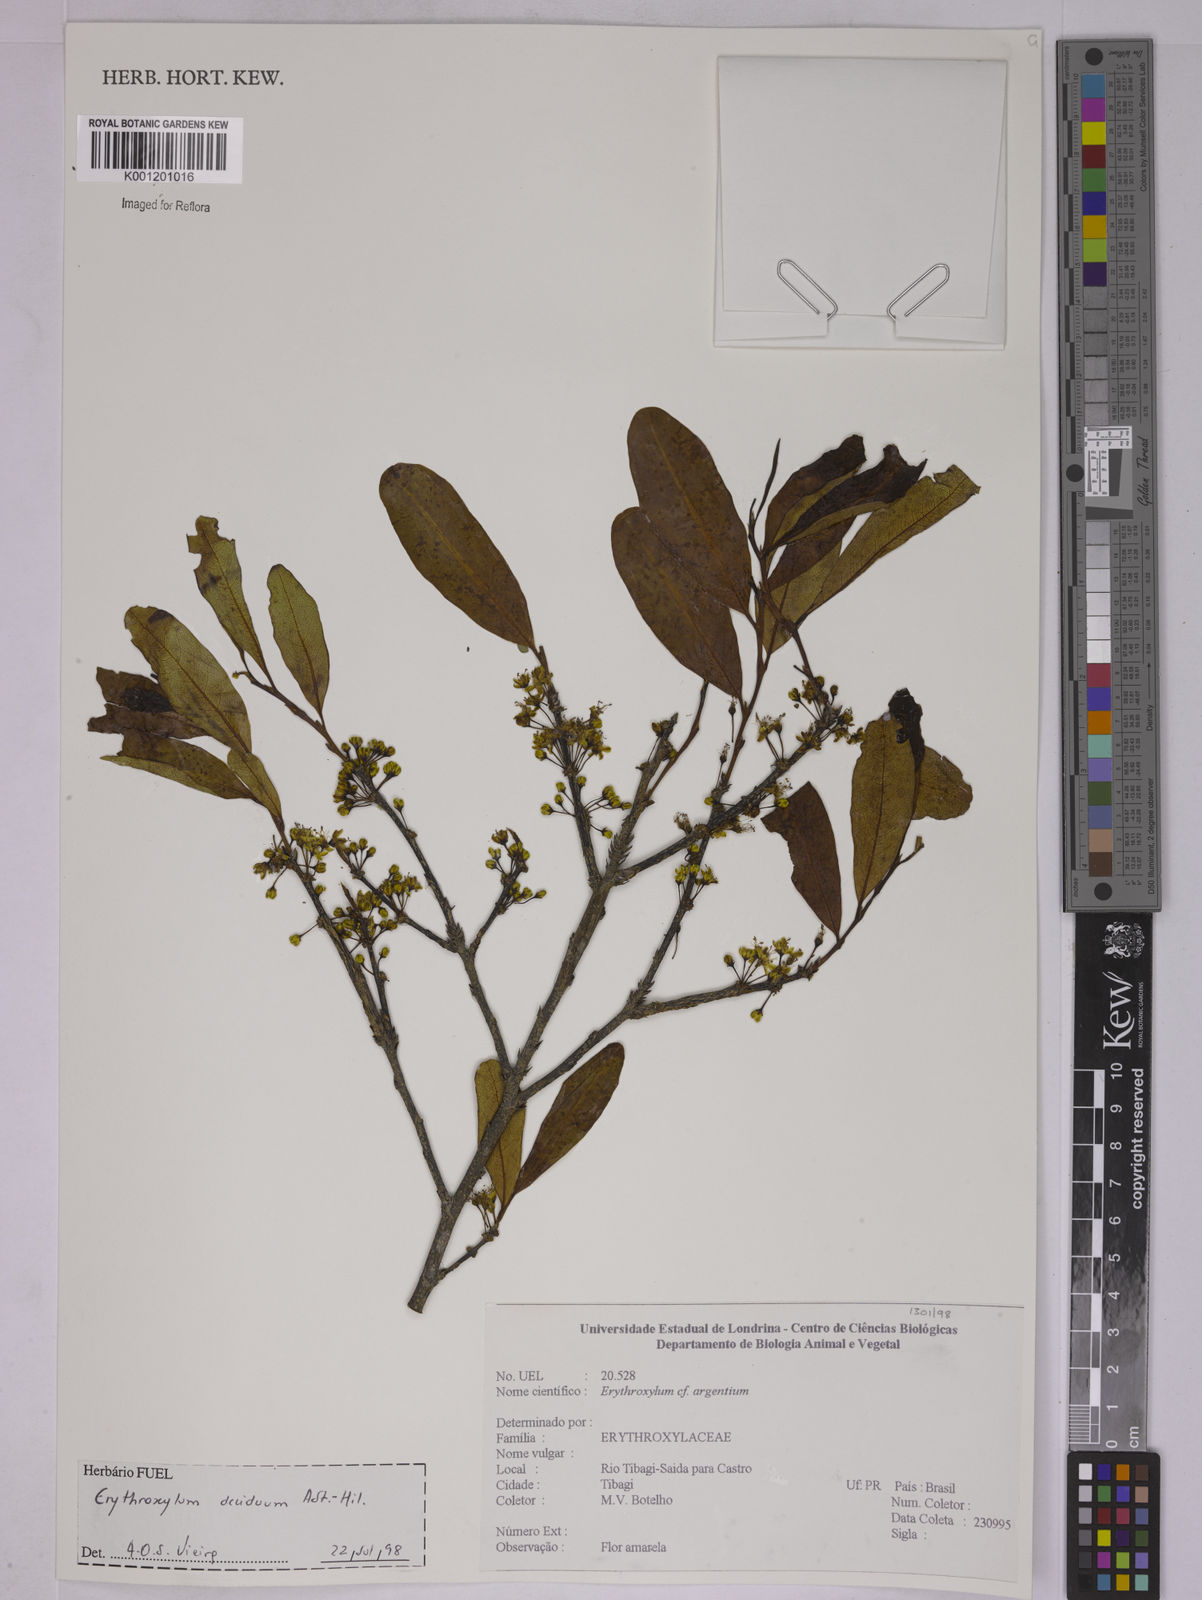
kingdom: Plantae
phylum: Tracheophyta
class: Magnoliopsida
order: Malpighiales
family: Erythroxylaceae
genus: Erythroxylum
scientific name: Erythroxylum deciduum
